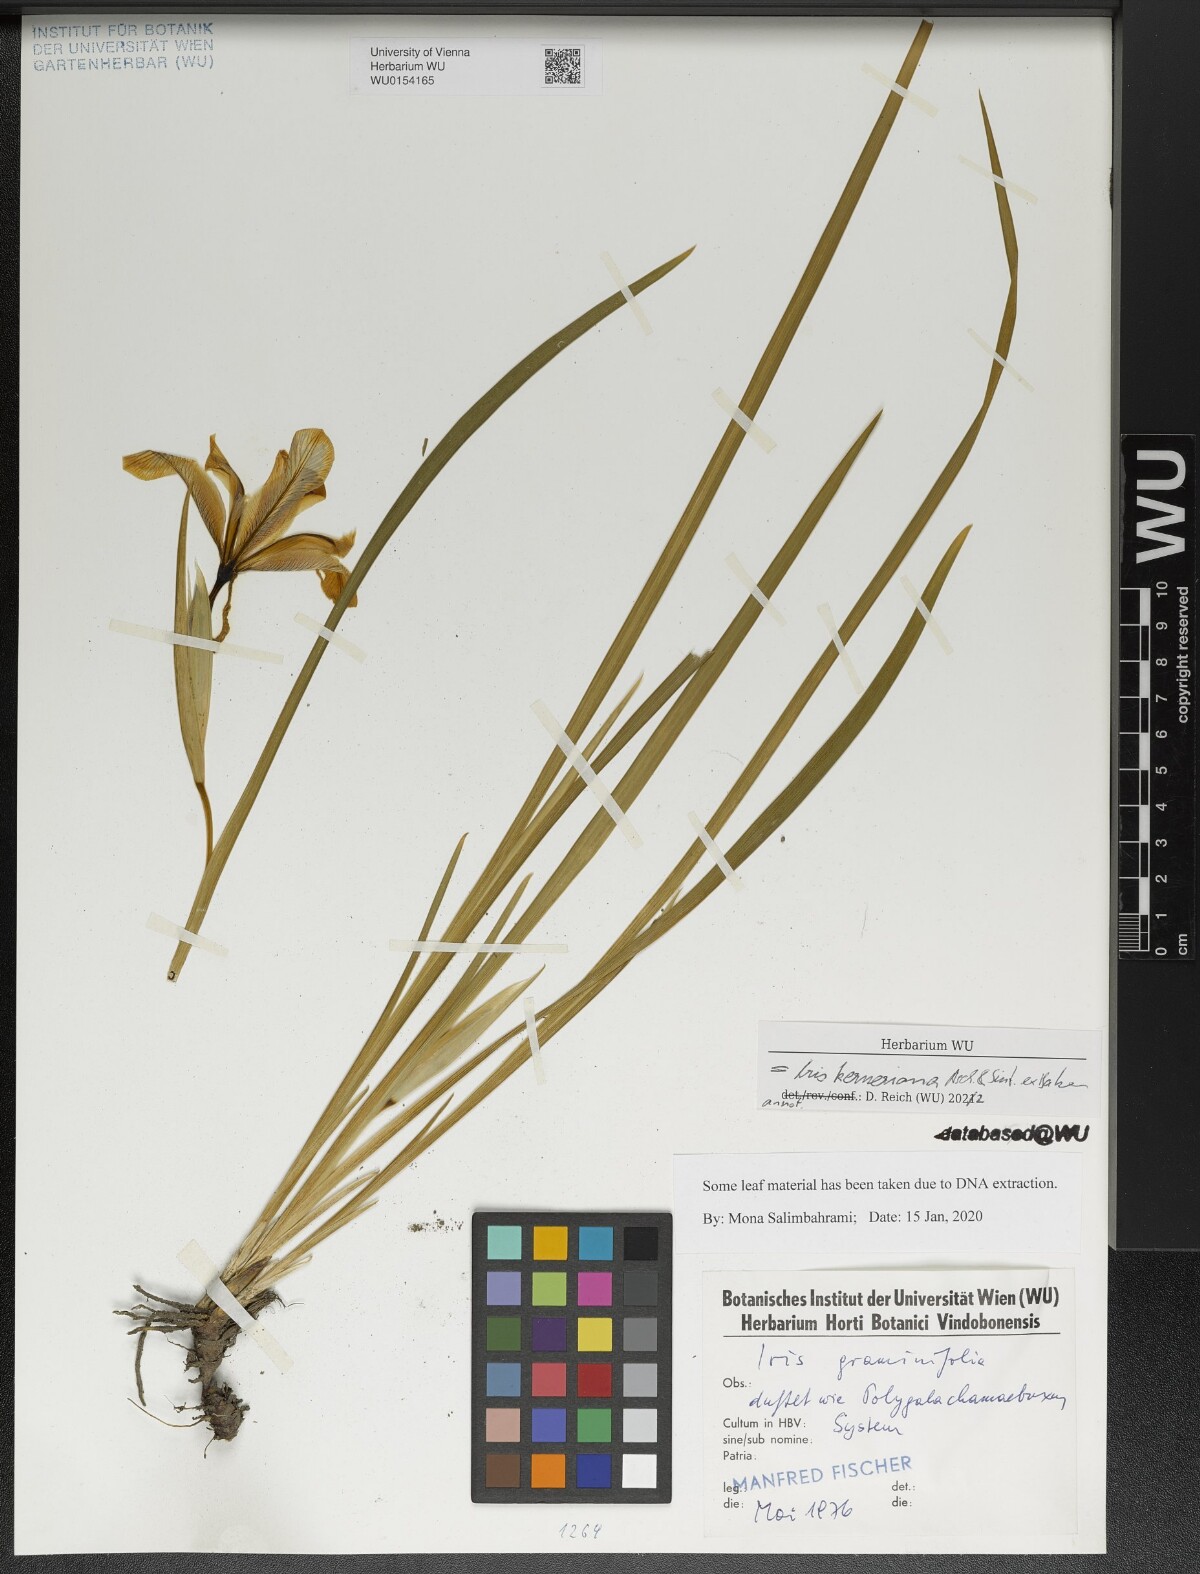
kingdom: Plantae
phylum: Tracheophyta
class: Liliopsida
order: Asparagales
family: Iridaceae
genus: Iris
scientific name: Iris kerneriana
